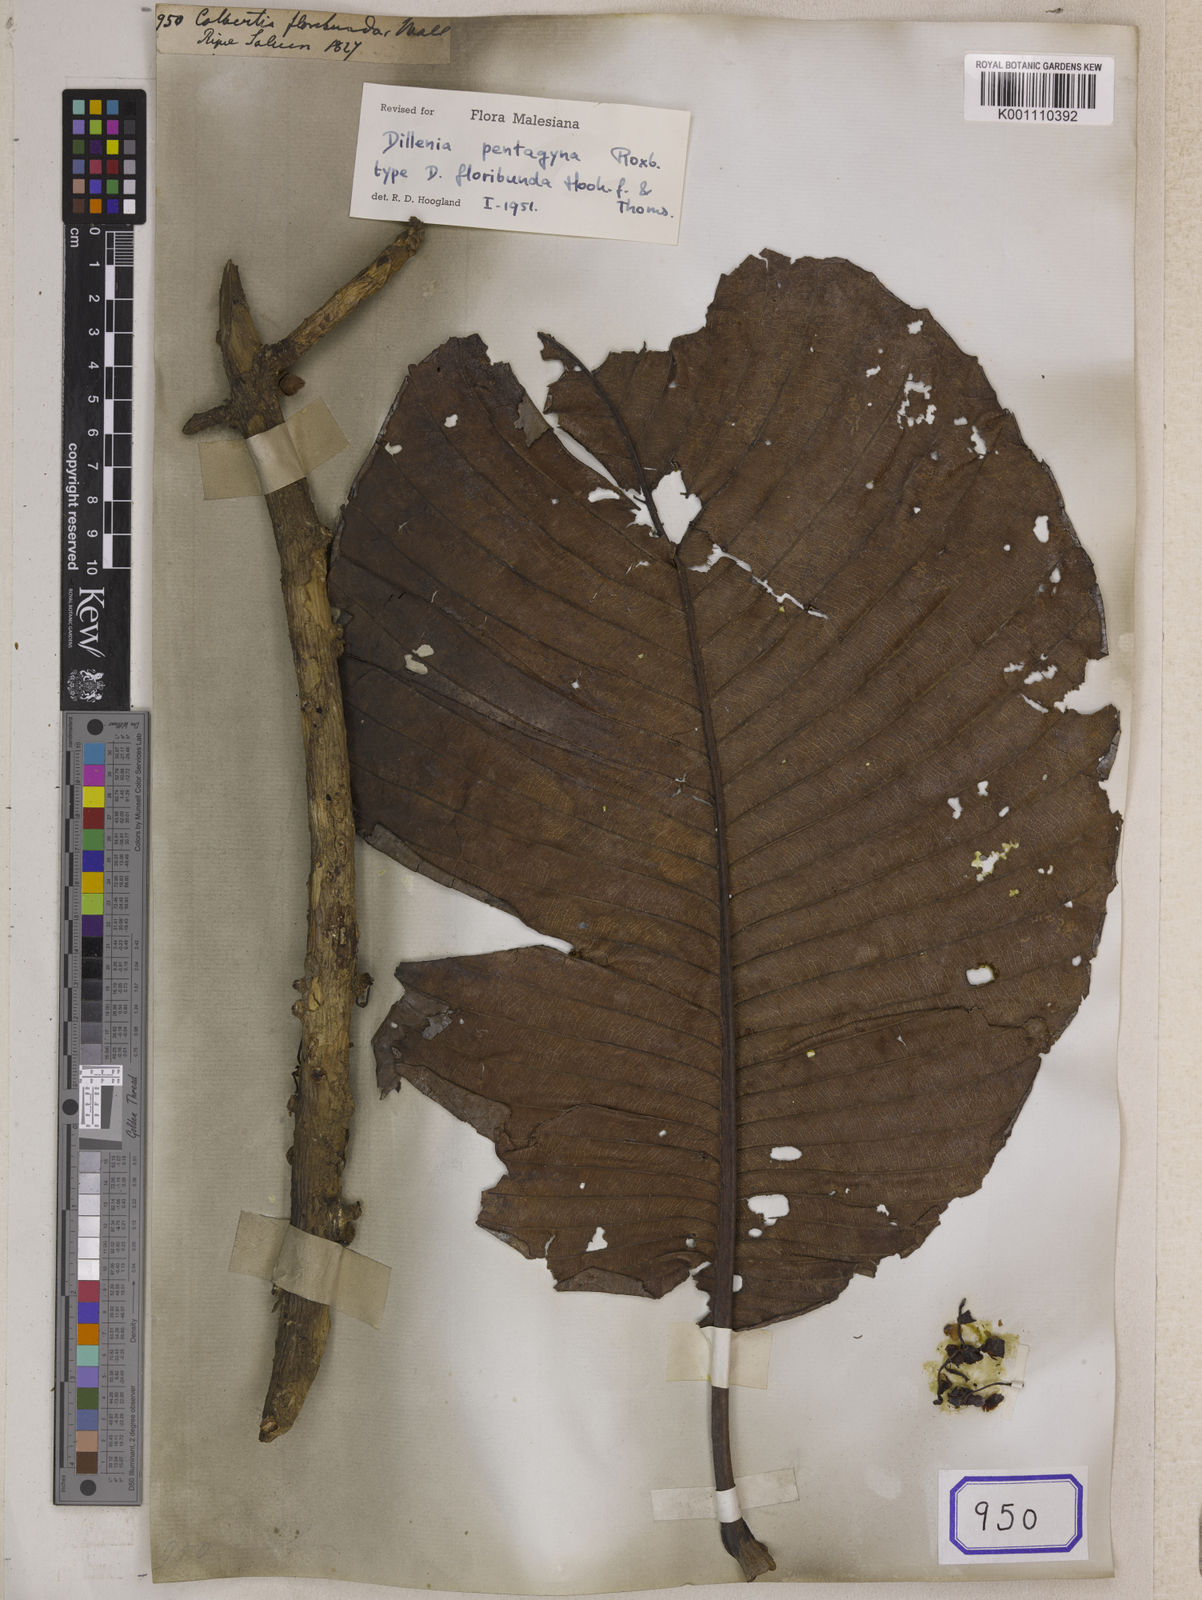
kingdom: Plantae
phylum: Tracheophyta
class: Magnoliopsida
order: Dilleniales
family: Dilleniaceae
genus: Dillenia
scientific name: Dillenia pentagyna
